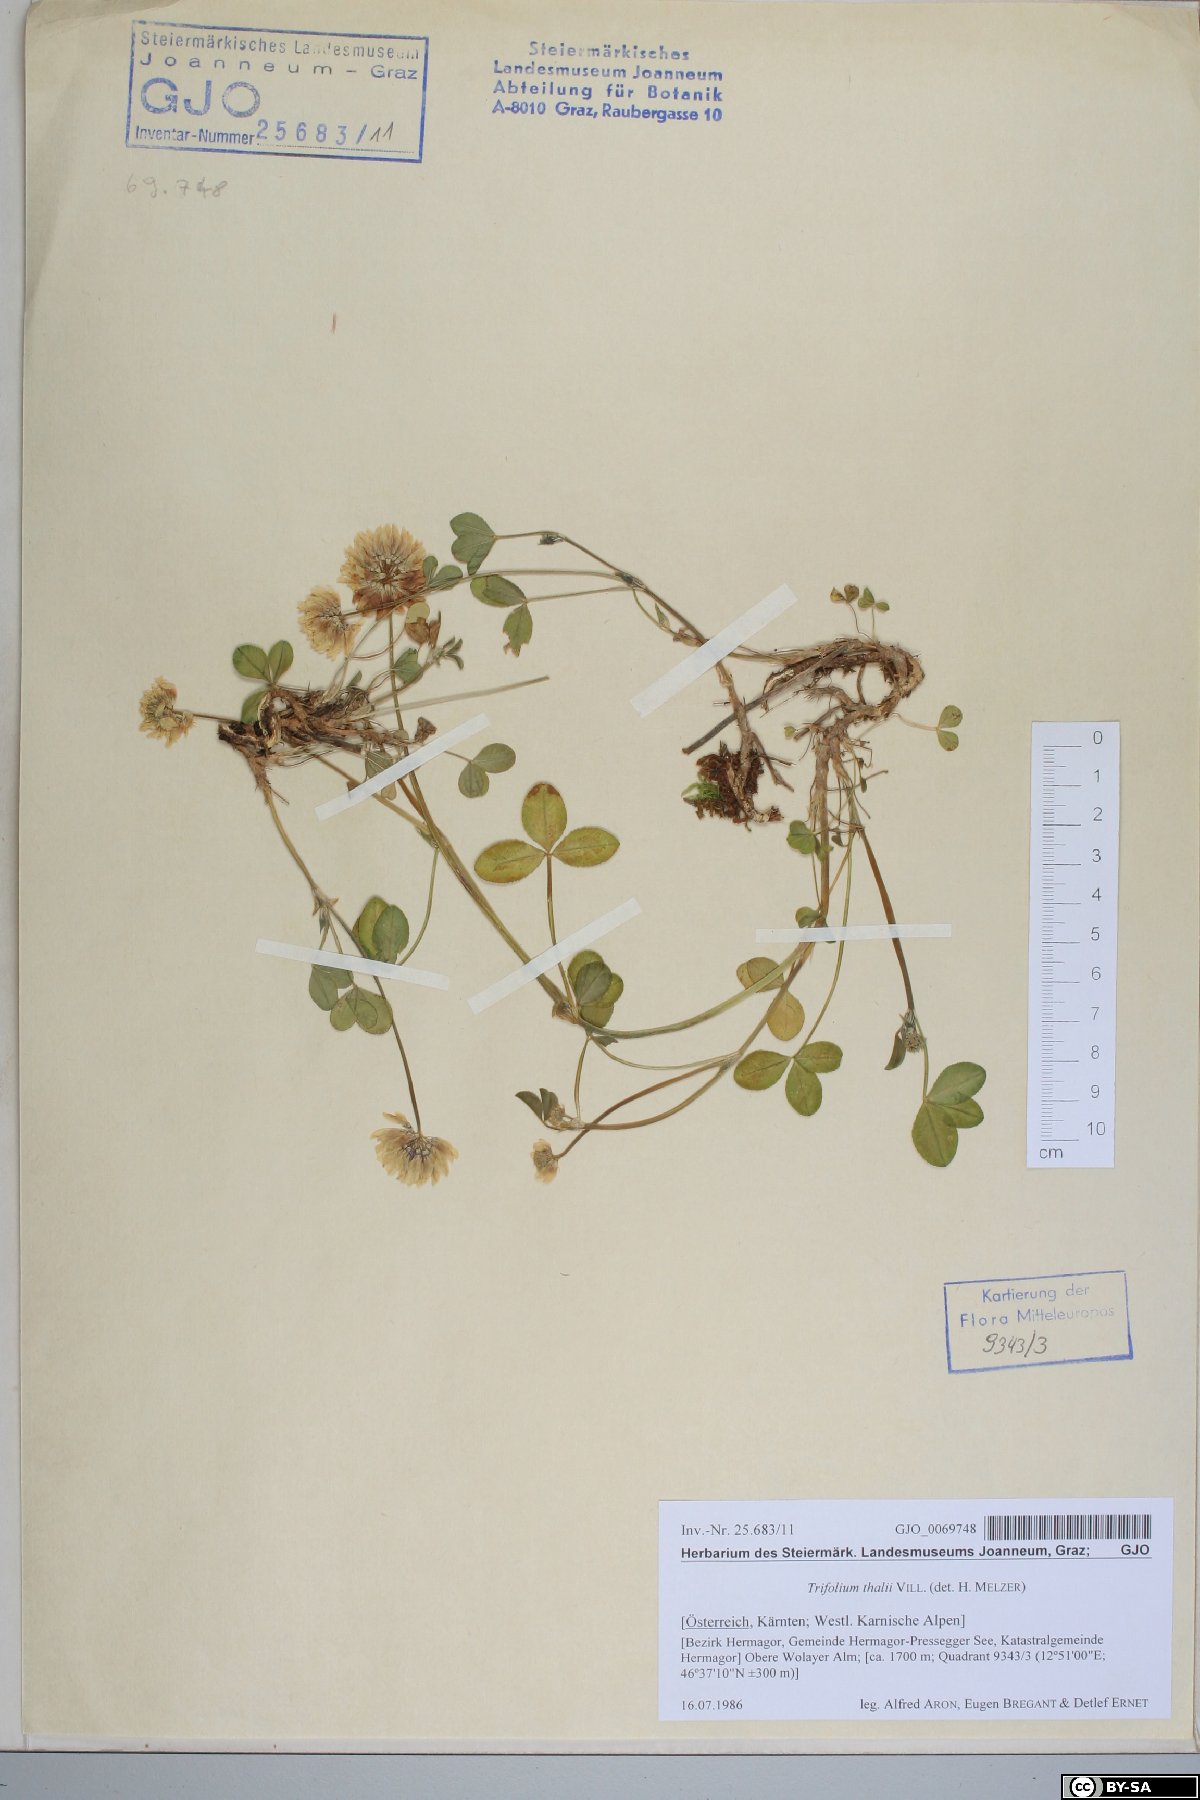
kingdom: Plantae
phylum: Tracheophyta
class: Magnoliopsida
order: Fabales
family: Fabaceae
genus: Trifolium
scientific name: Trifolium thalii
